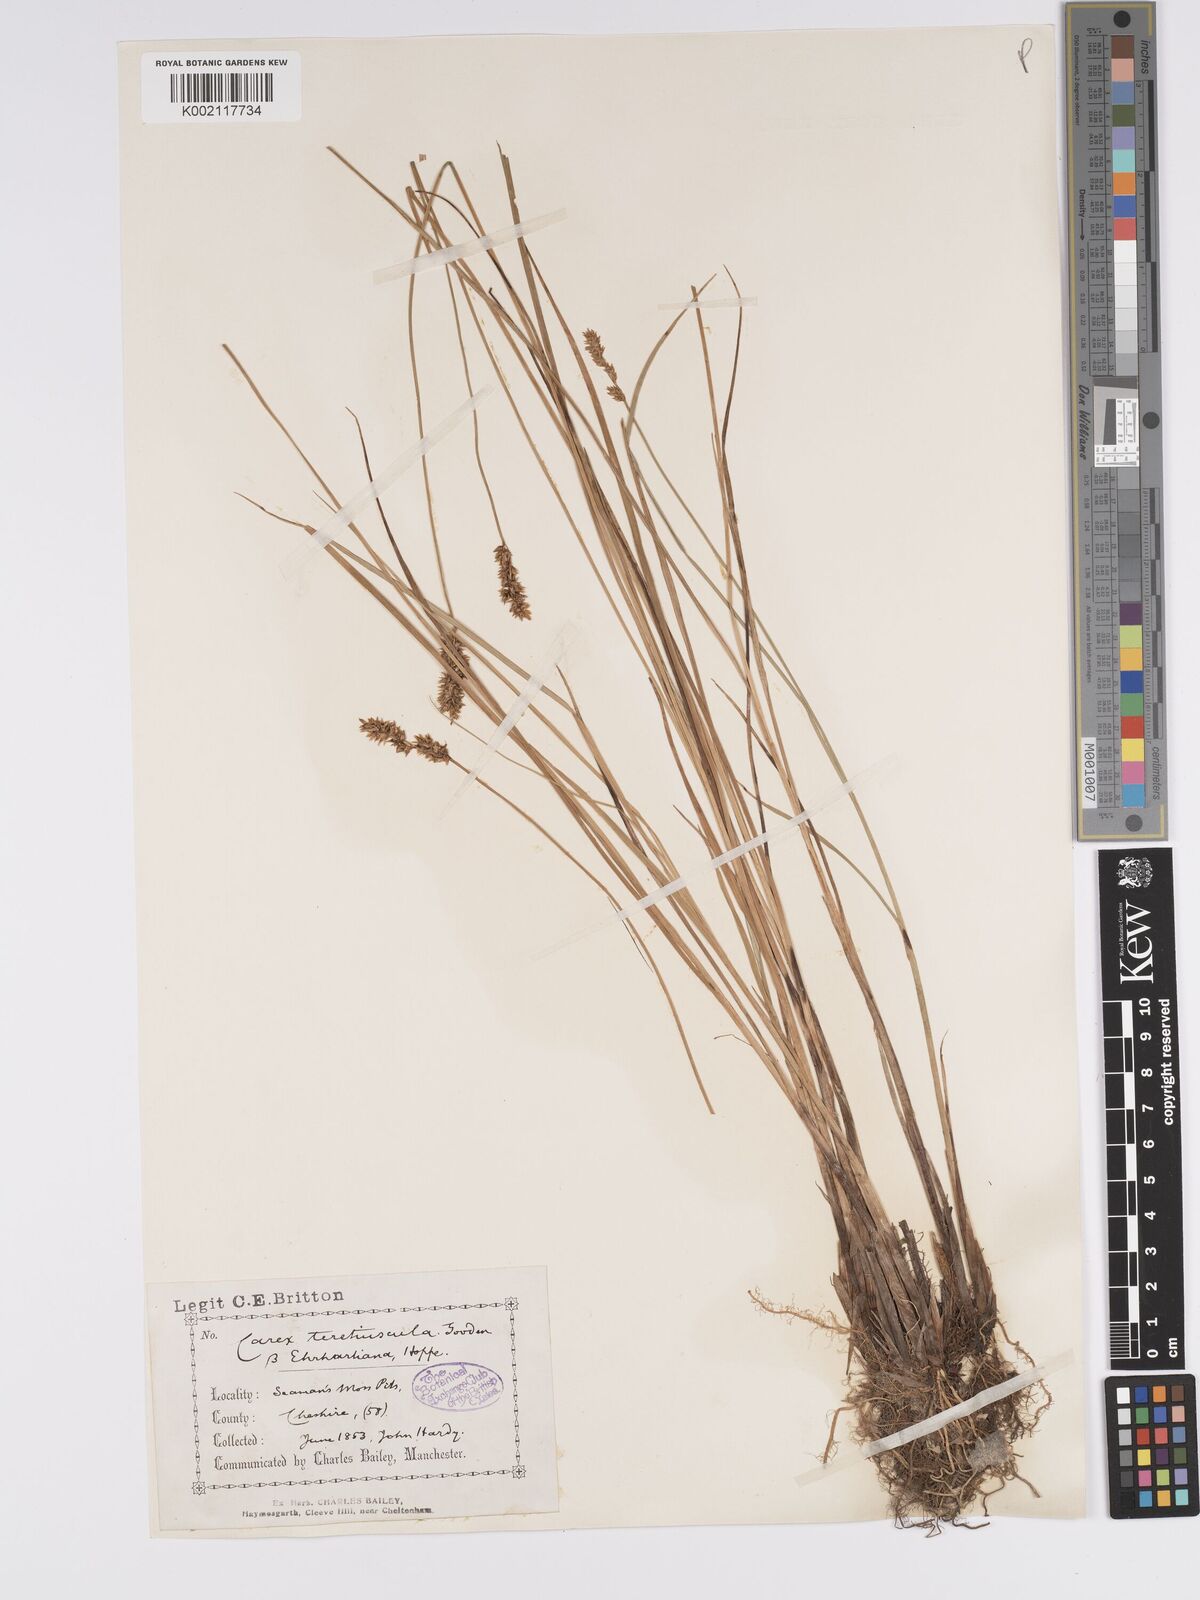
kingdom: Plantae
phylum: Tracheophyta
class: Liliopsida
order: Poales
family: Cyperaceae
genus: Carex
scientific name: Carex diandra
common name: Lesser tussock-sedge
